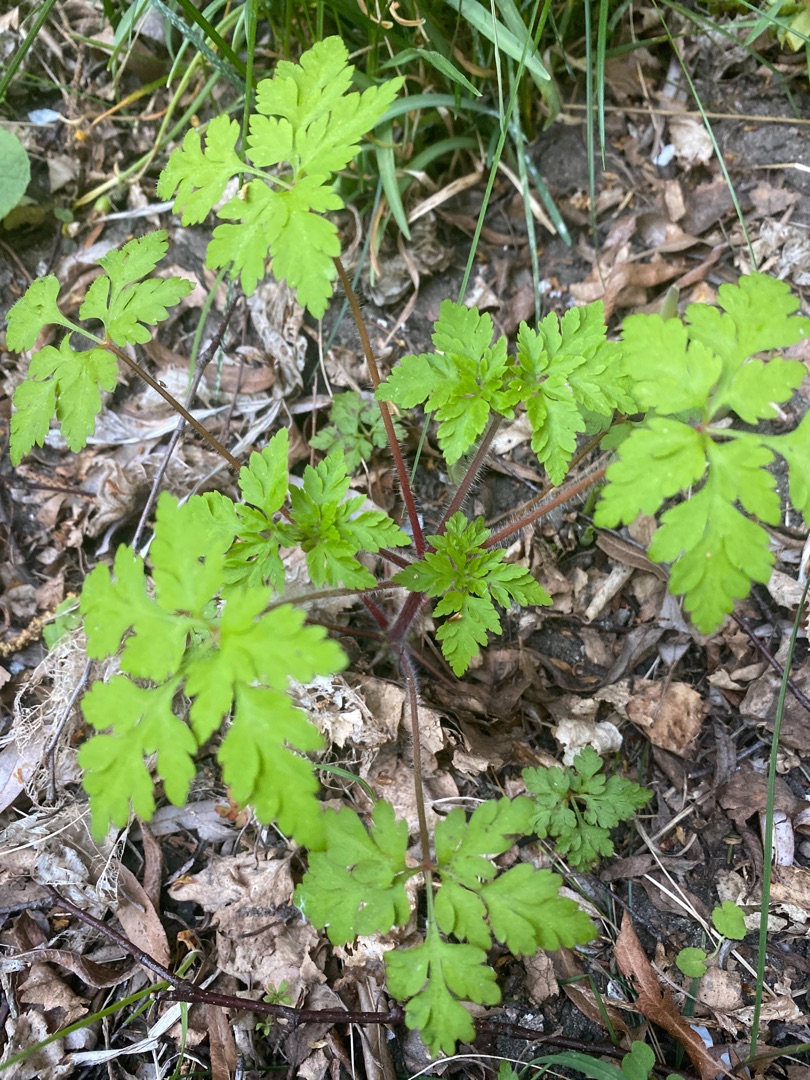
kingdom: Plantae
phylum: Tracheophyta
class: Magnoliopsida
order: Geraniales
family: Geraniaceae
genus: Geranium
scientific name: Geranium robertianum
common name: Stinkende storkenæb
